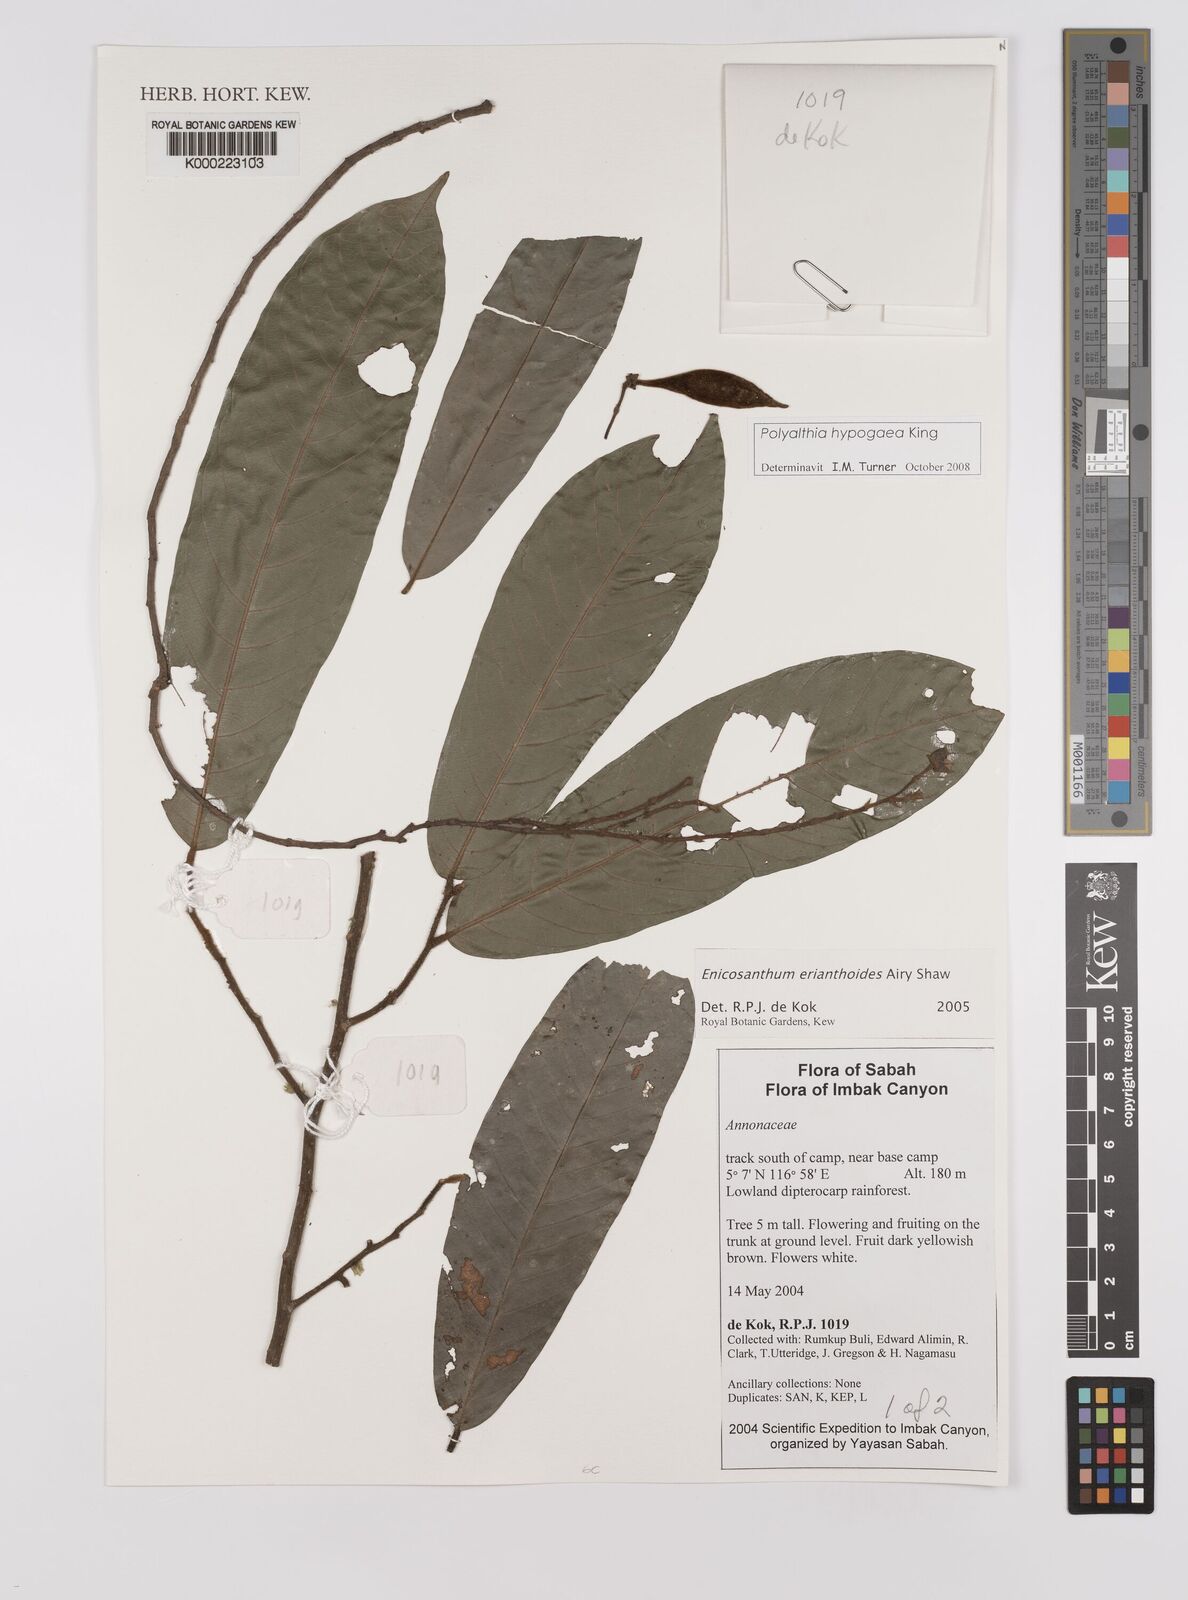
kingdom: Plantae
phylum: Tracheophyta
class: Magnoliopsida
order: Magnoliales
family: Annonaceae
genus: Polyalthia
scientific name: Polyalthia hypogaea
